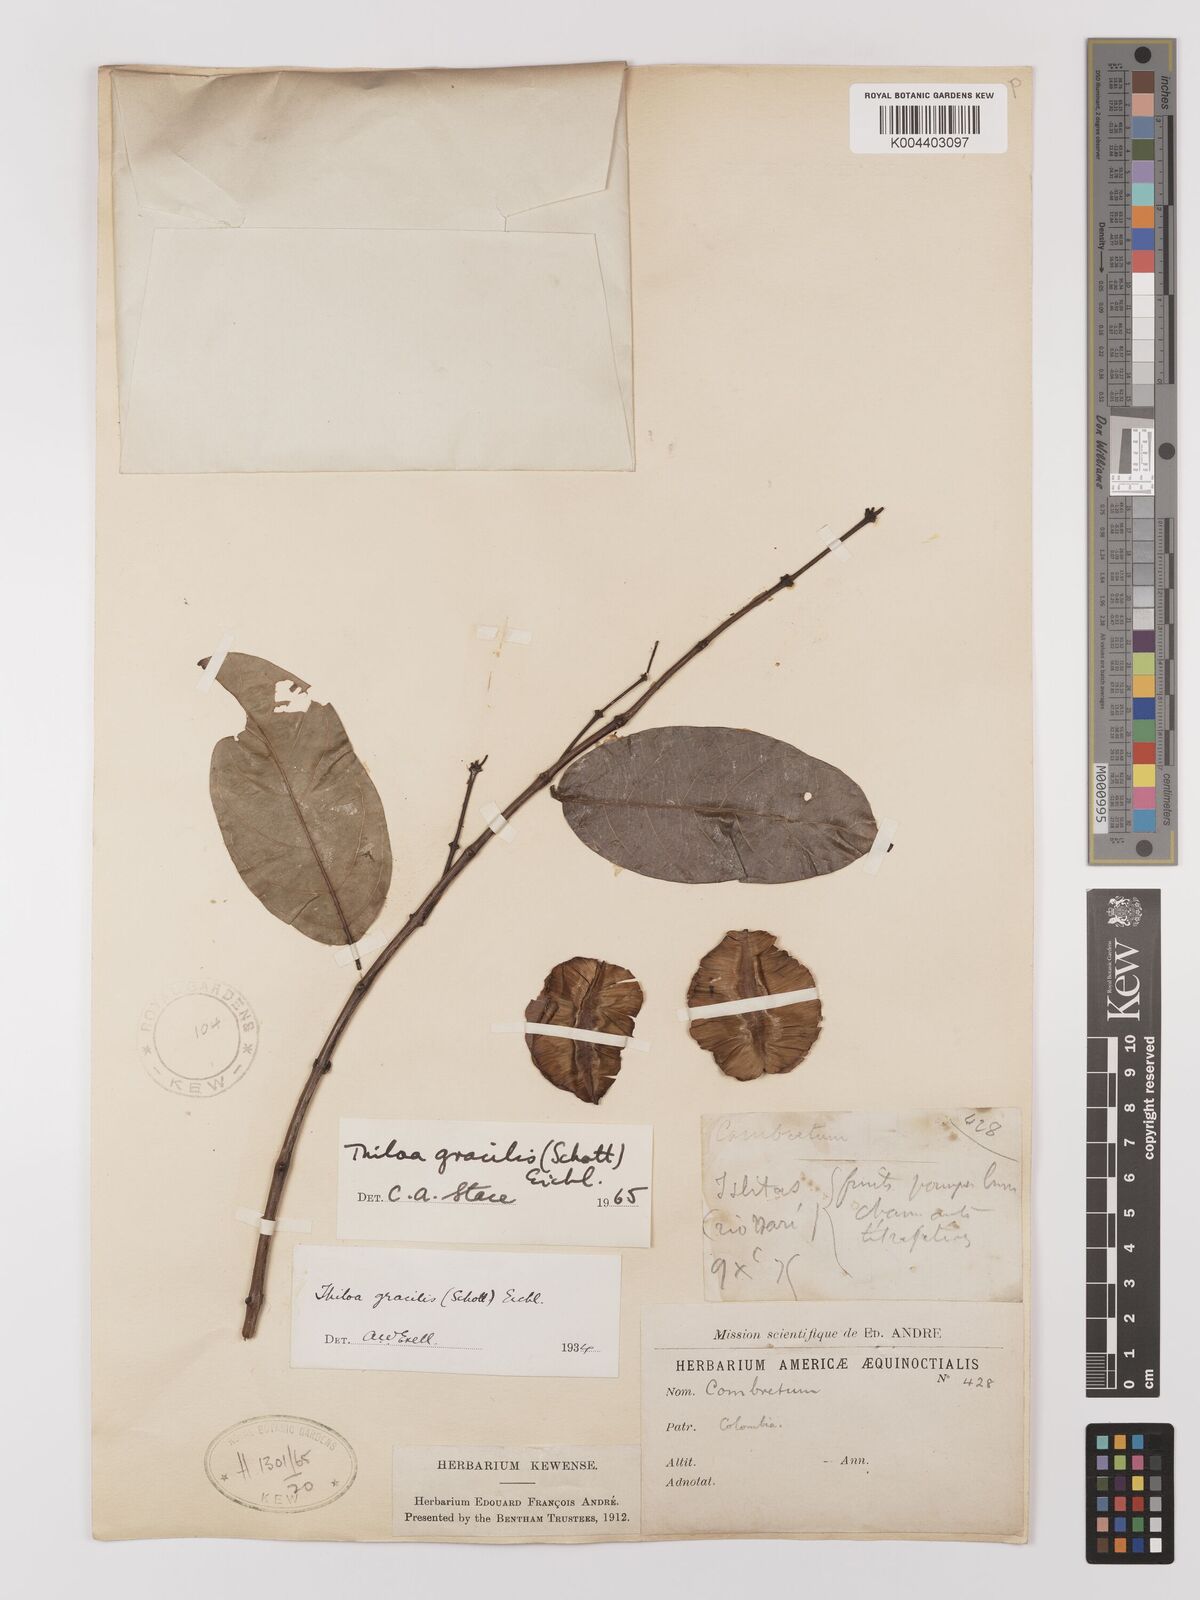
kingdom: Plantae
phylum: Tracheophyta
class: Magnoliopsida
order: Myrtales
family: Combretaceae
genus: Combretum
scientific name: Combretum gracile
